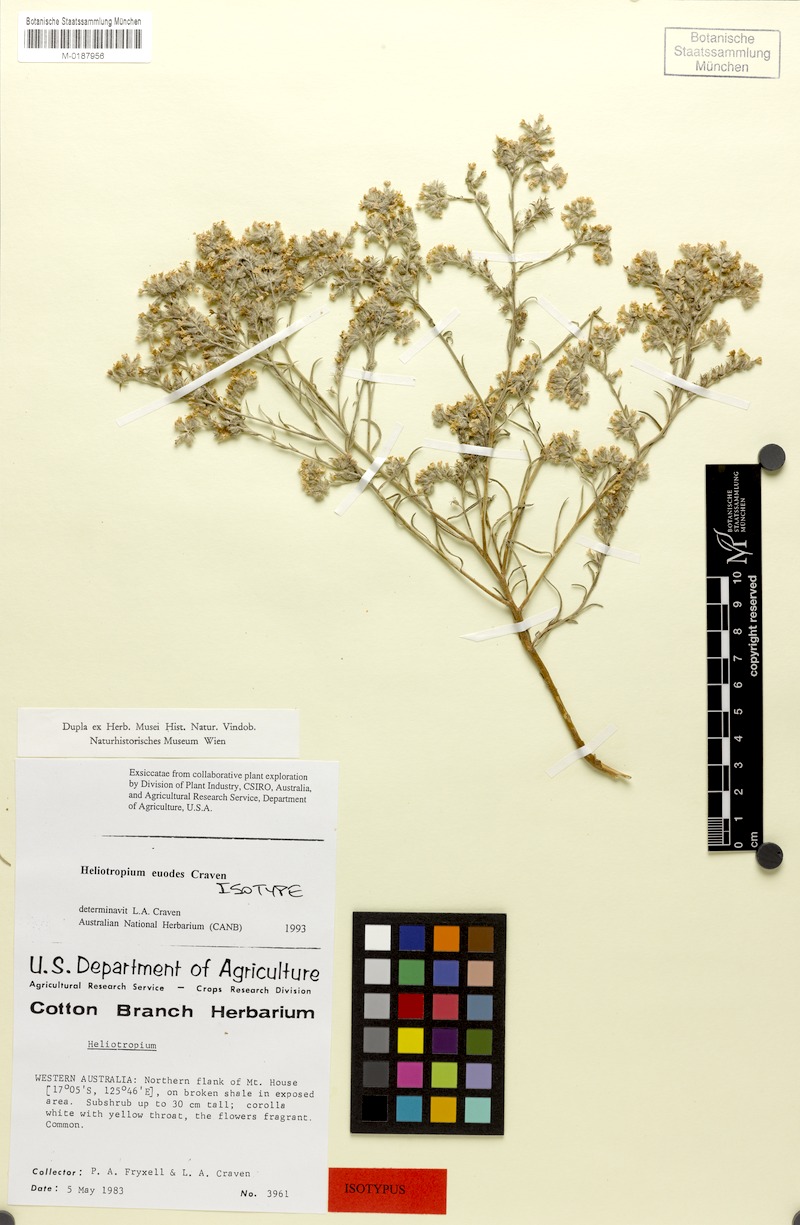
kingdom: Plantae
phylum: Tracheophyta
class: Magnoliopsida
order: Boraginales
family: Heliotropiaceae
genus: Euploca
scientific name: Euploca euodes
